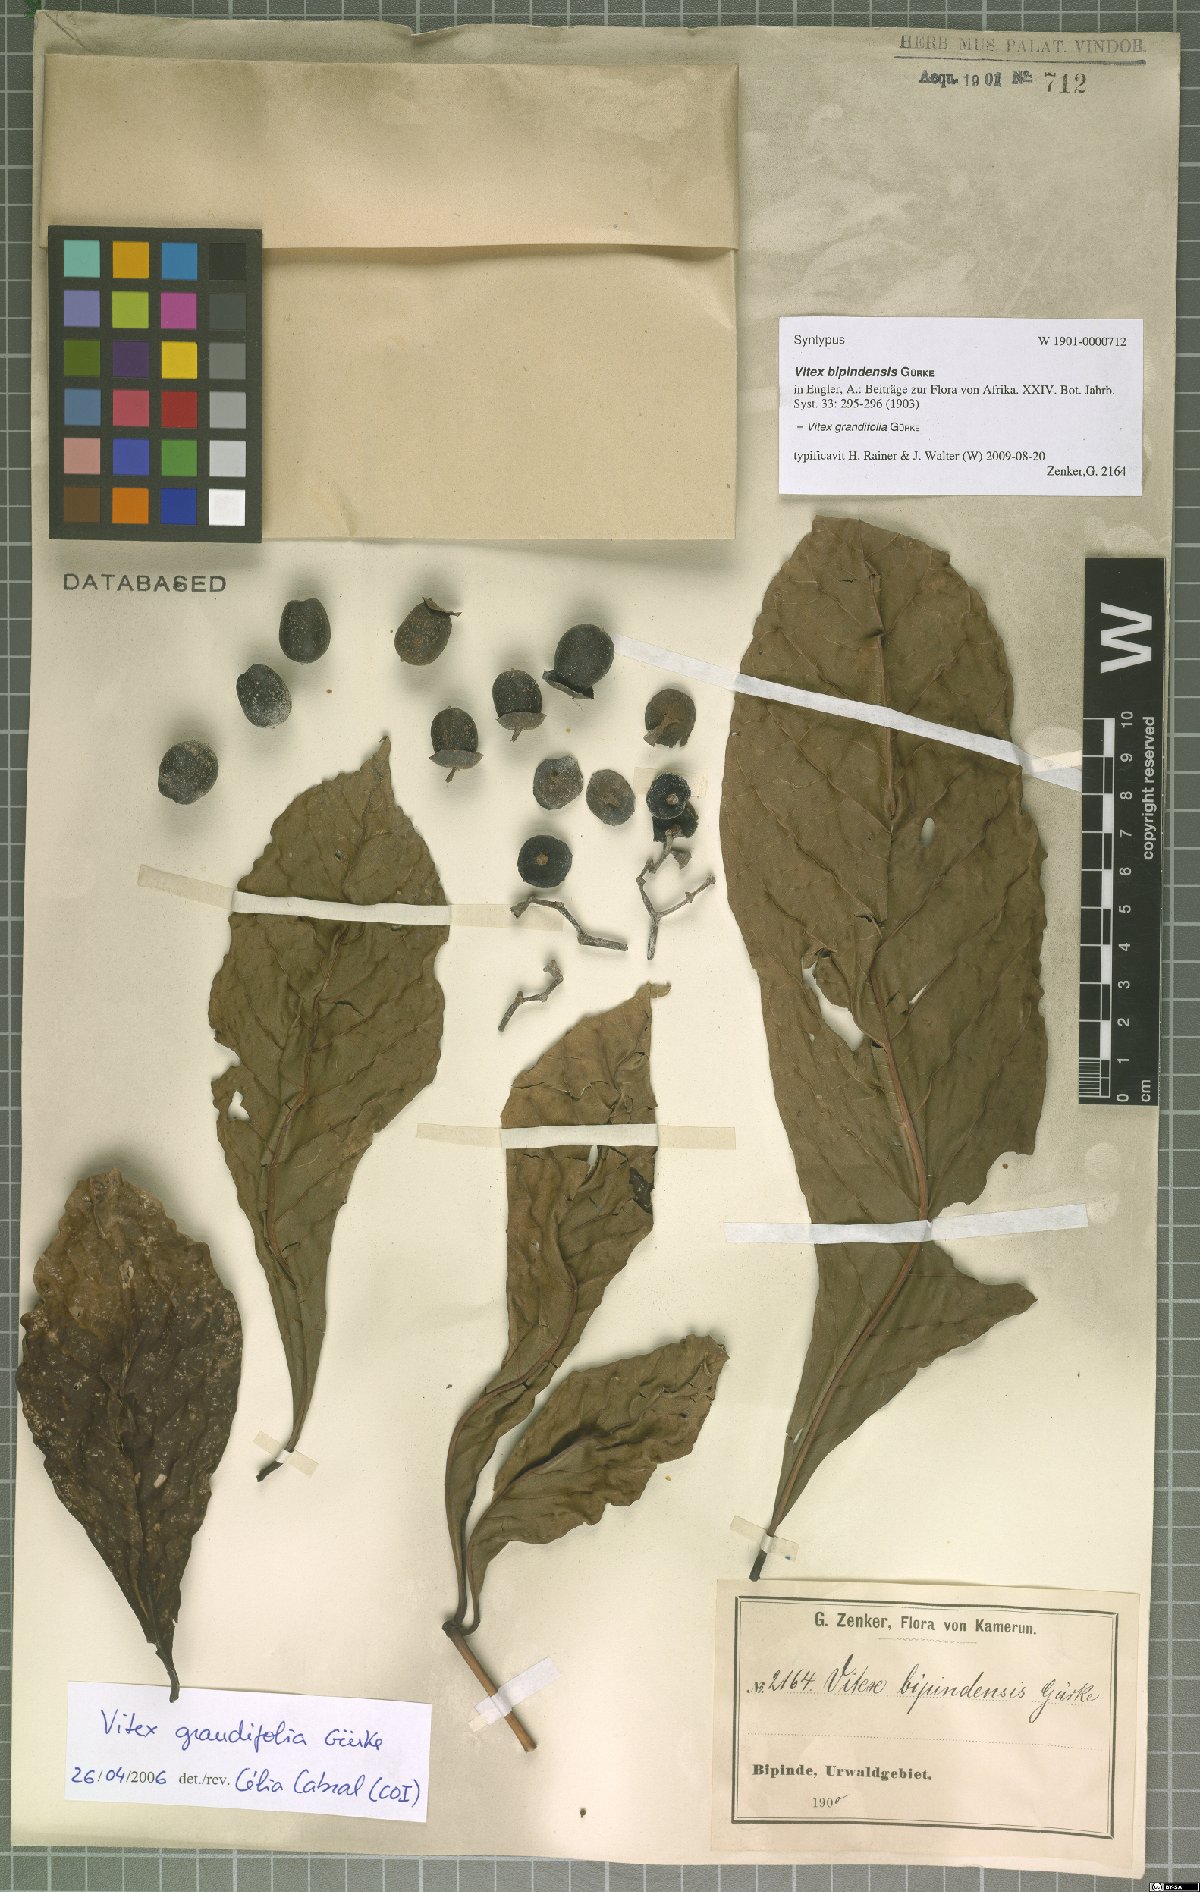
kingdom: Plantae
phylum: Tracheophyta
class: Magnoliopsida
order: Lamiales
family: Lamiaceae
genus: Vitex
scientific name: Vitex grandifolia
